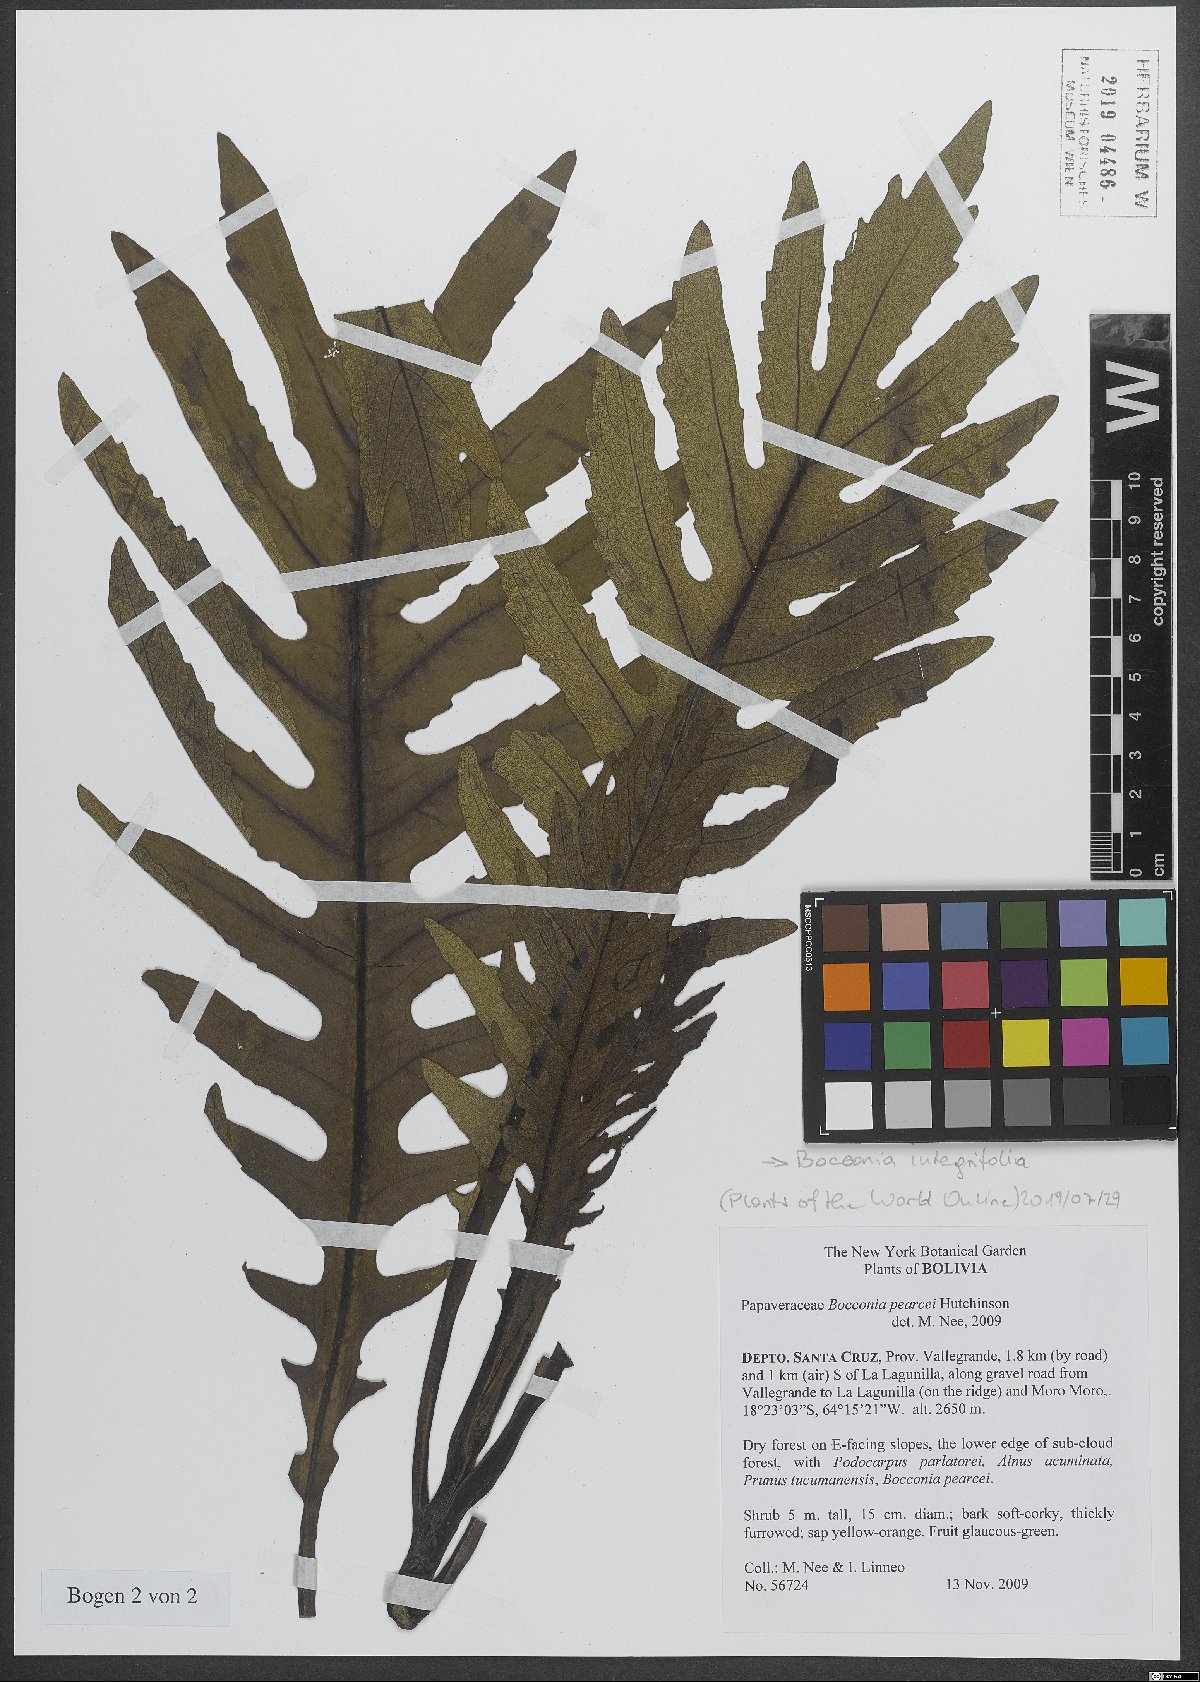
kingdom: Plantae
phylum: Tracheophyta
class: Magnoliopsida
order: Ranunculales
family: Papaveraceae
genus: Bocconia
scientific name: Bocconia integrifolia
